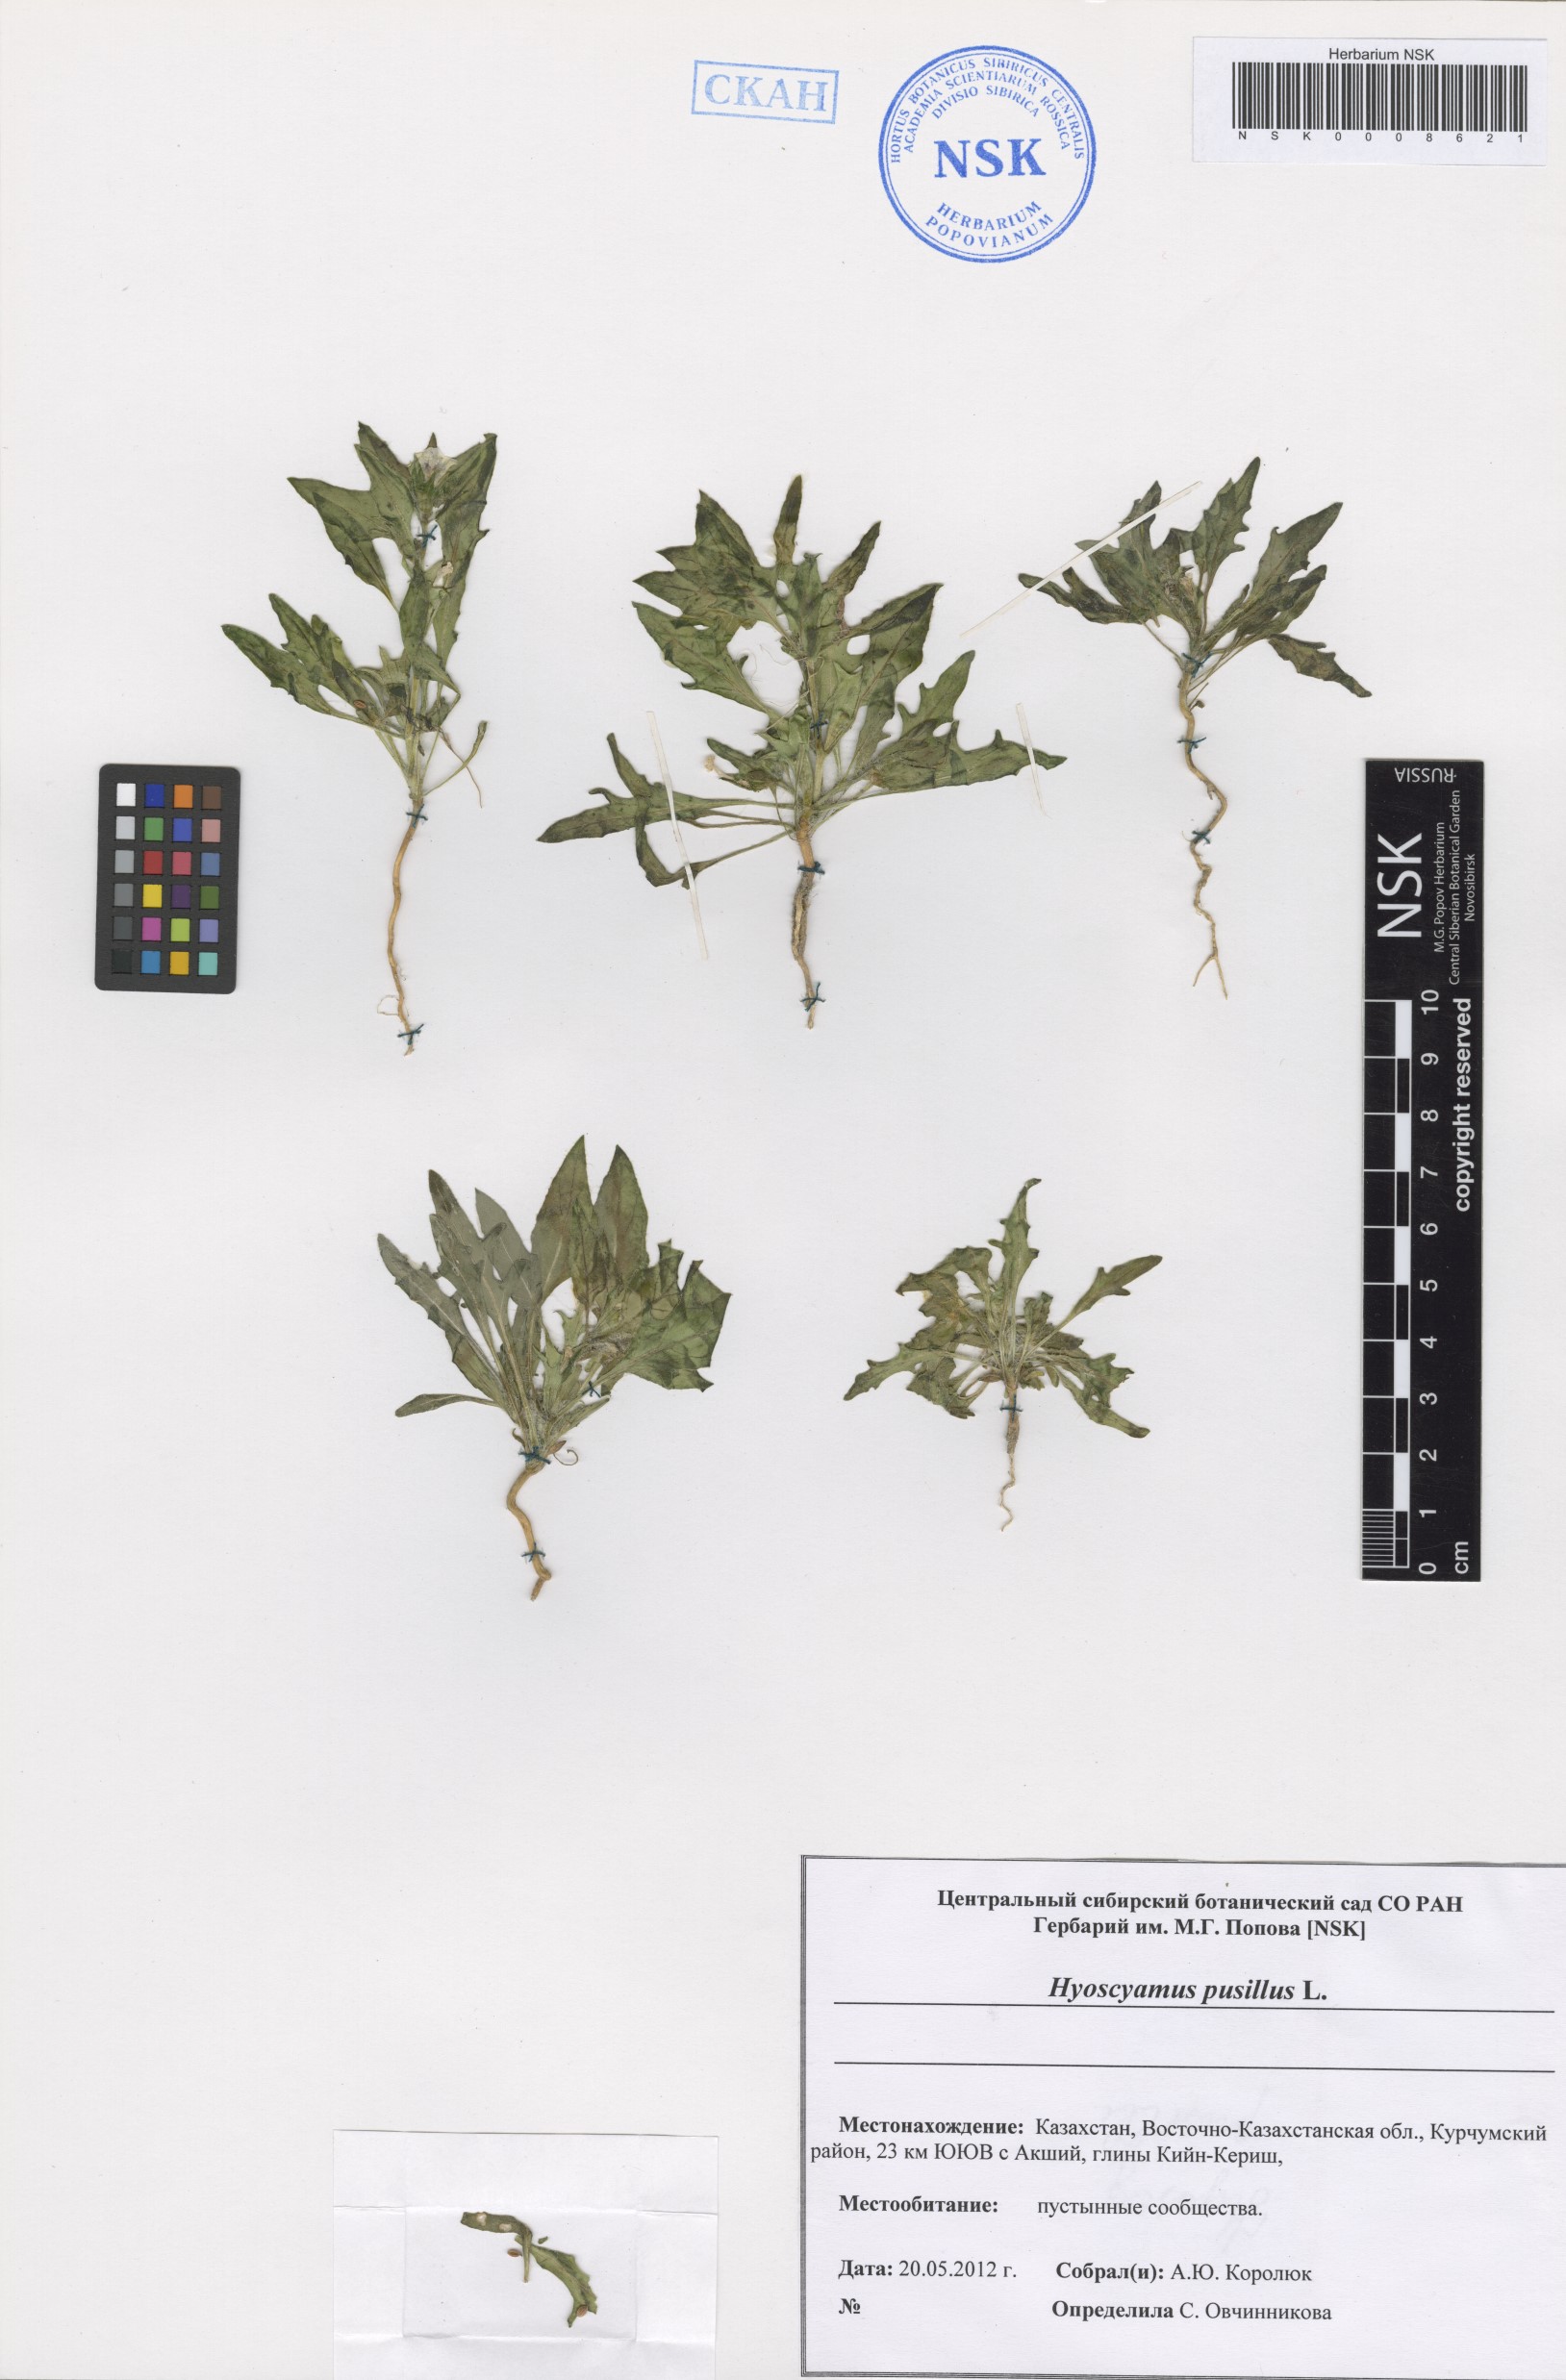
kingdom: Plantae
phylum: Tracheophyta
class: Magnoliopsida
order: Solanales
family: Solanaceae
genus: Hyoscyamus
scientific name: Hyoscyamus pusillus
